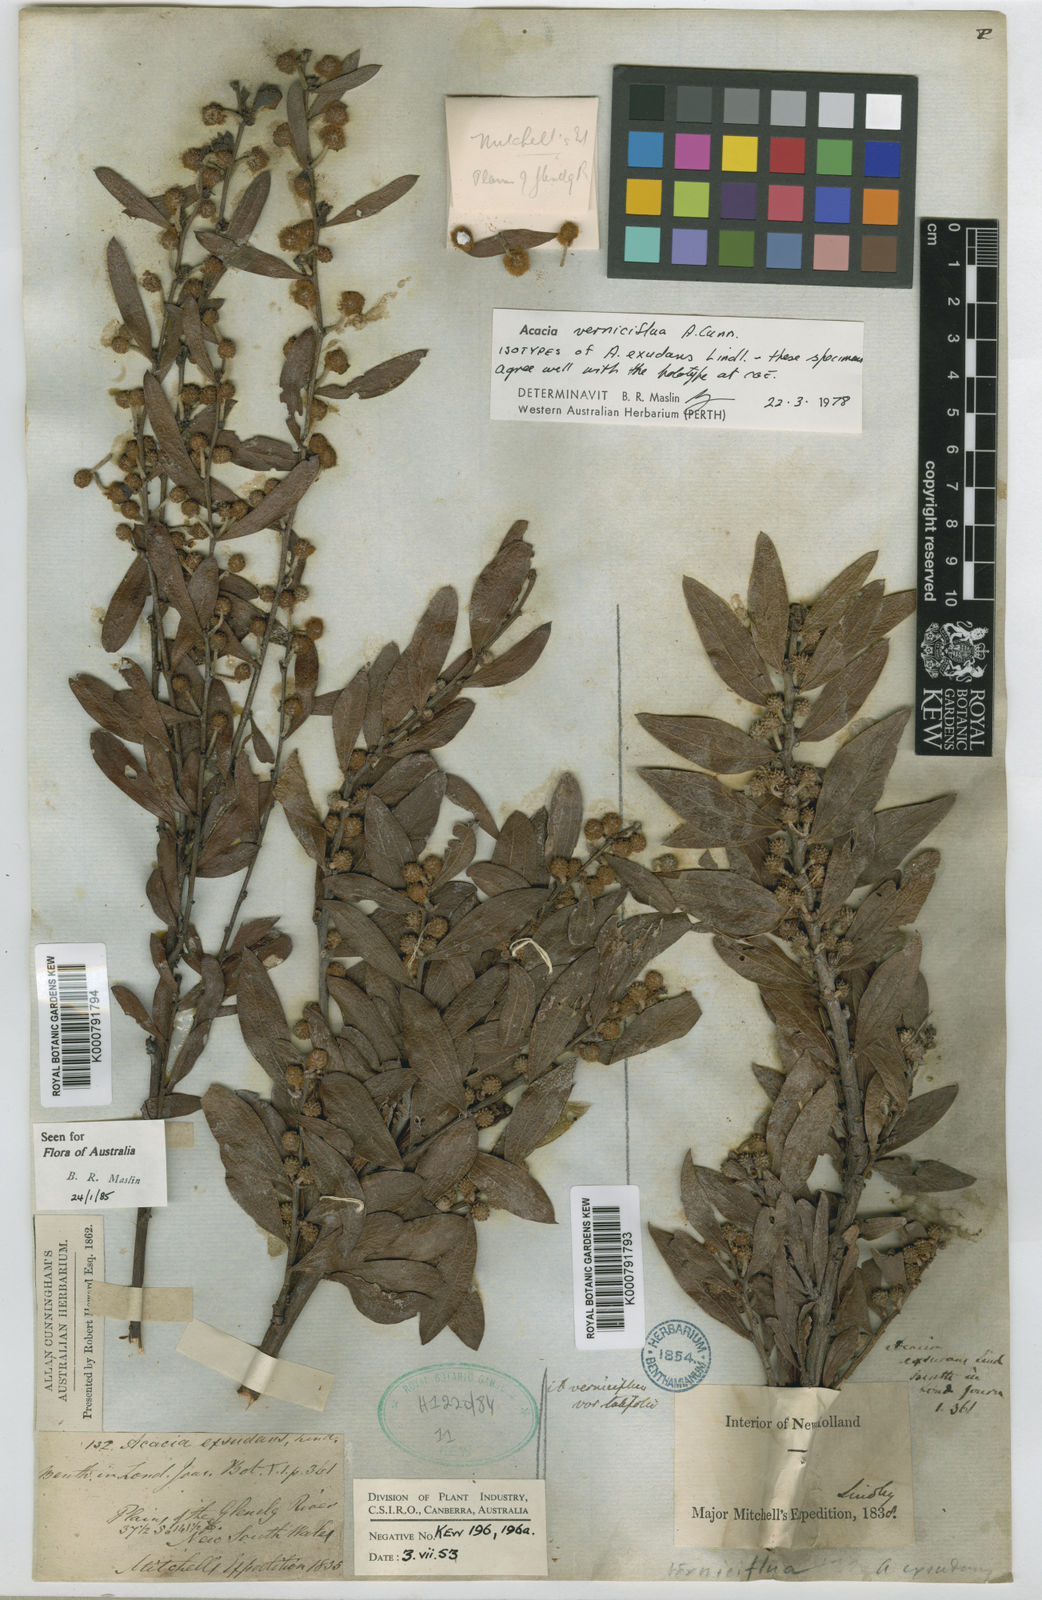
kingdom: Plantae
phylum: Tracheophyta
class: Magnoliopsida
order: Fabales
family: Fabaceae
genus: Acacia
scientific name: Acacia verniciflua
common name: Varnish wattle
